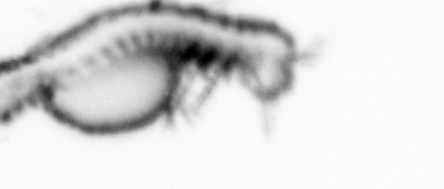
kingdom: Animalia
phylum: Annelida
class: Polychaeta
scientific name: Polychaeta
